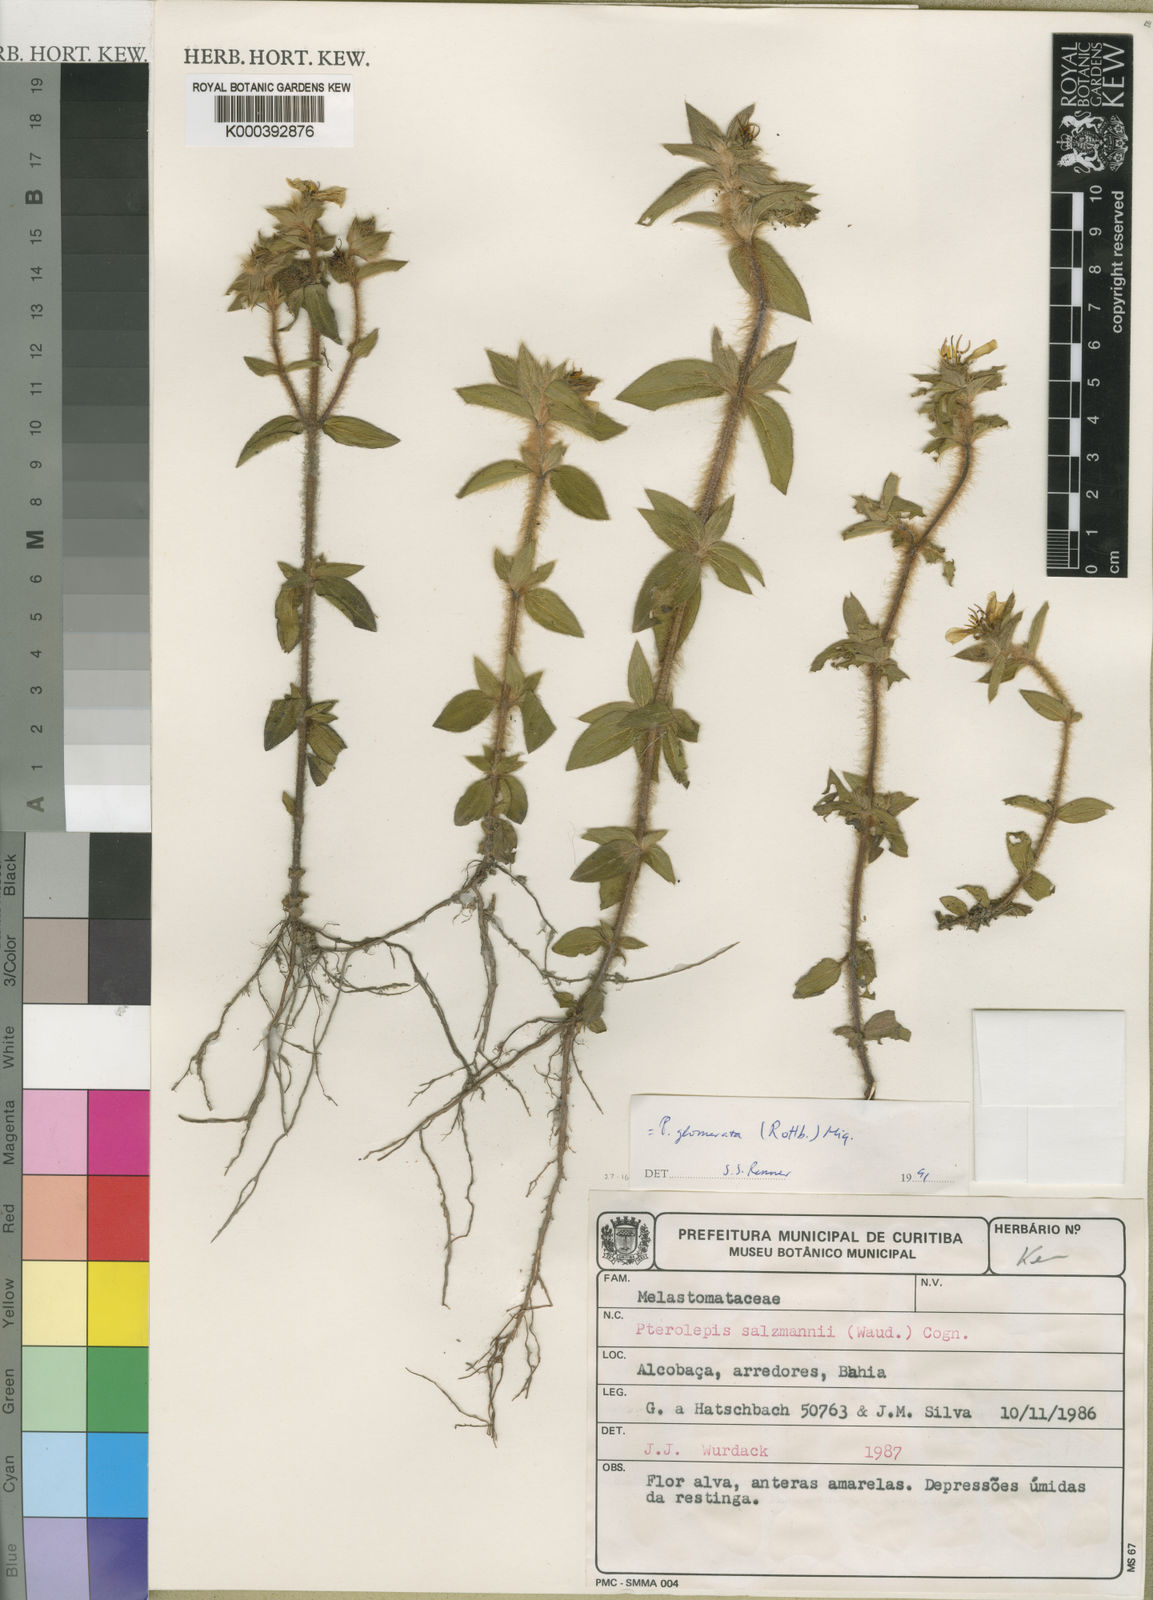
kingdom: Plantae
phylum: Tracheophyta
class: Magnoliopsida
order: Myrtales
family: Melastomataceae
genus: Pterolepis
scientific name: Pterolepis glomerata
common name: False meadowbeauty
